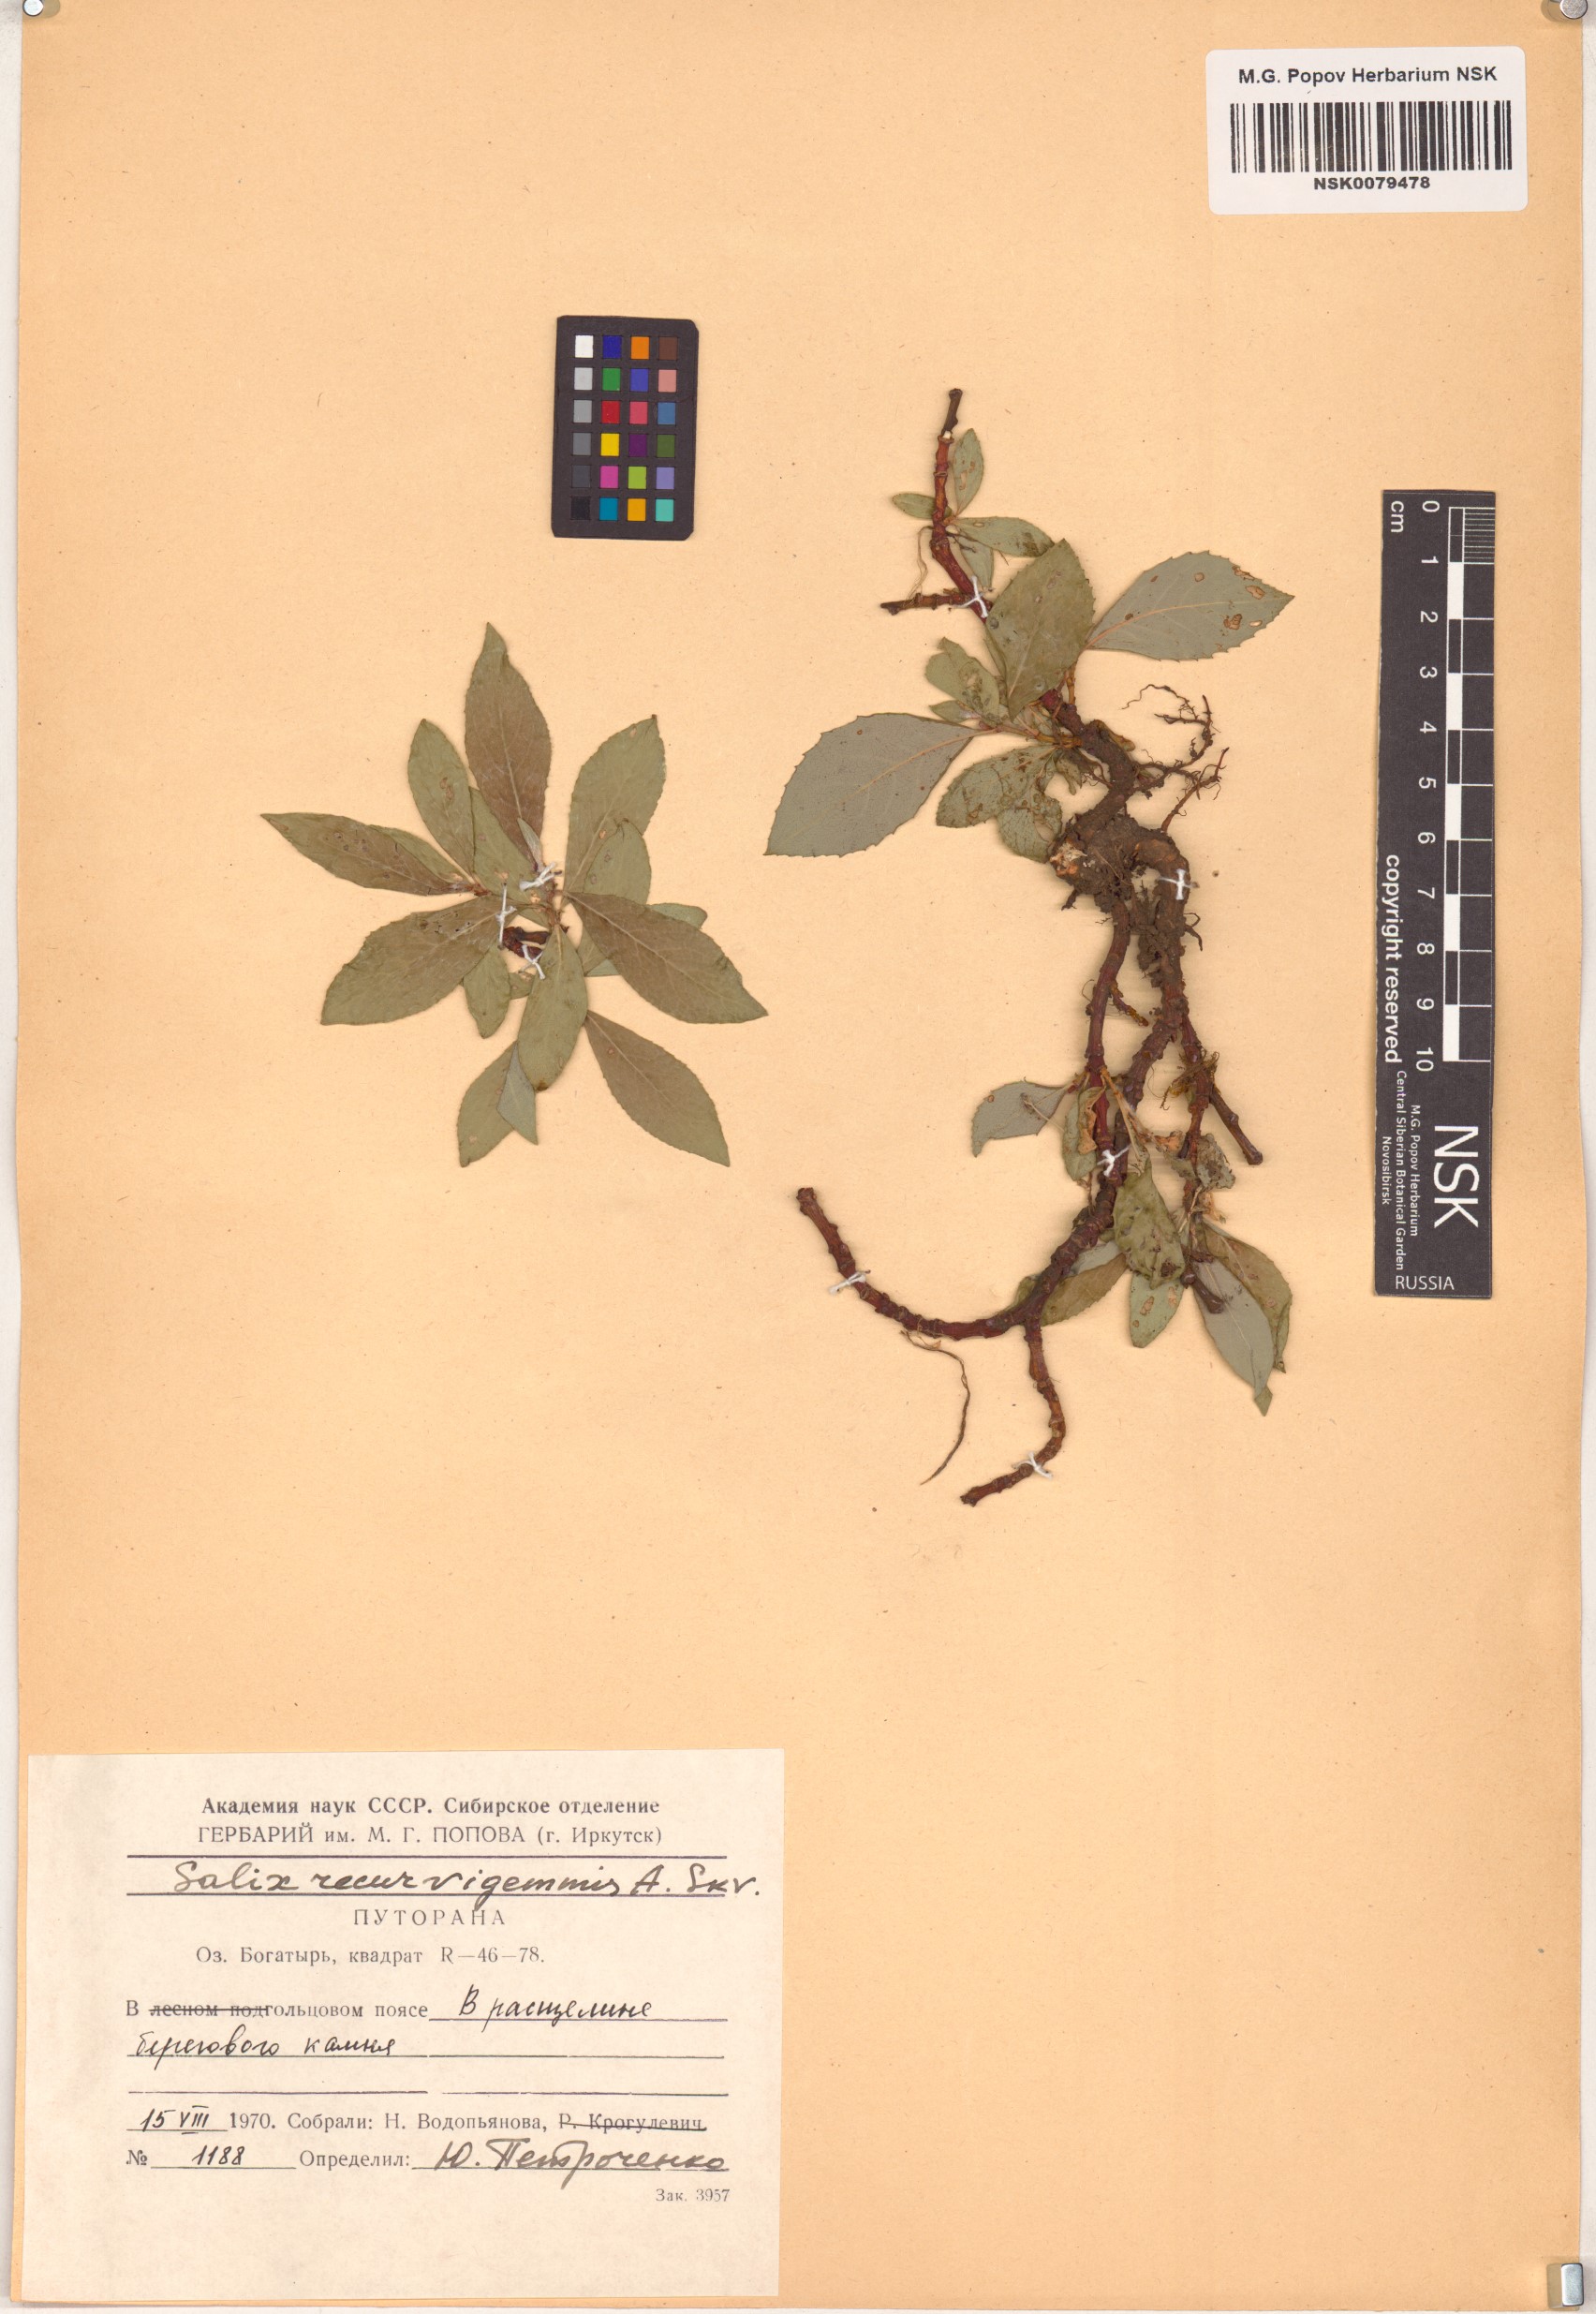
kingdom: Plantae
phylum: Tracheophyta
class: Magnoliopsida
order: Malpighiales
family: Salicaceae
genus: Salix
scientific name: Salix recurvigemmata
